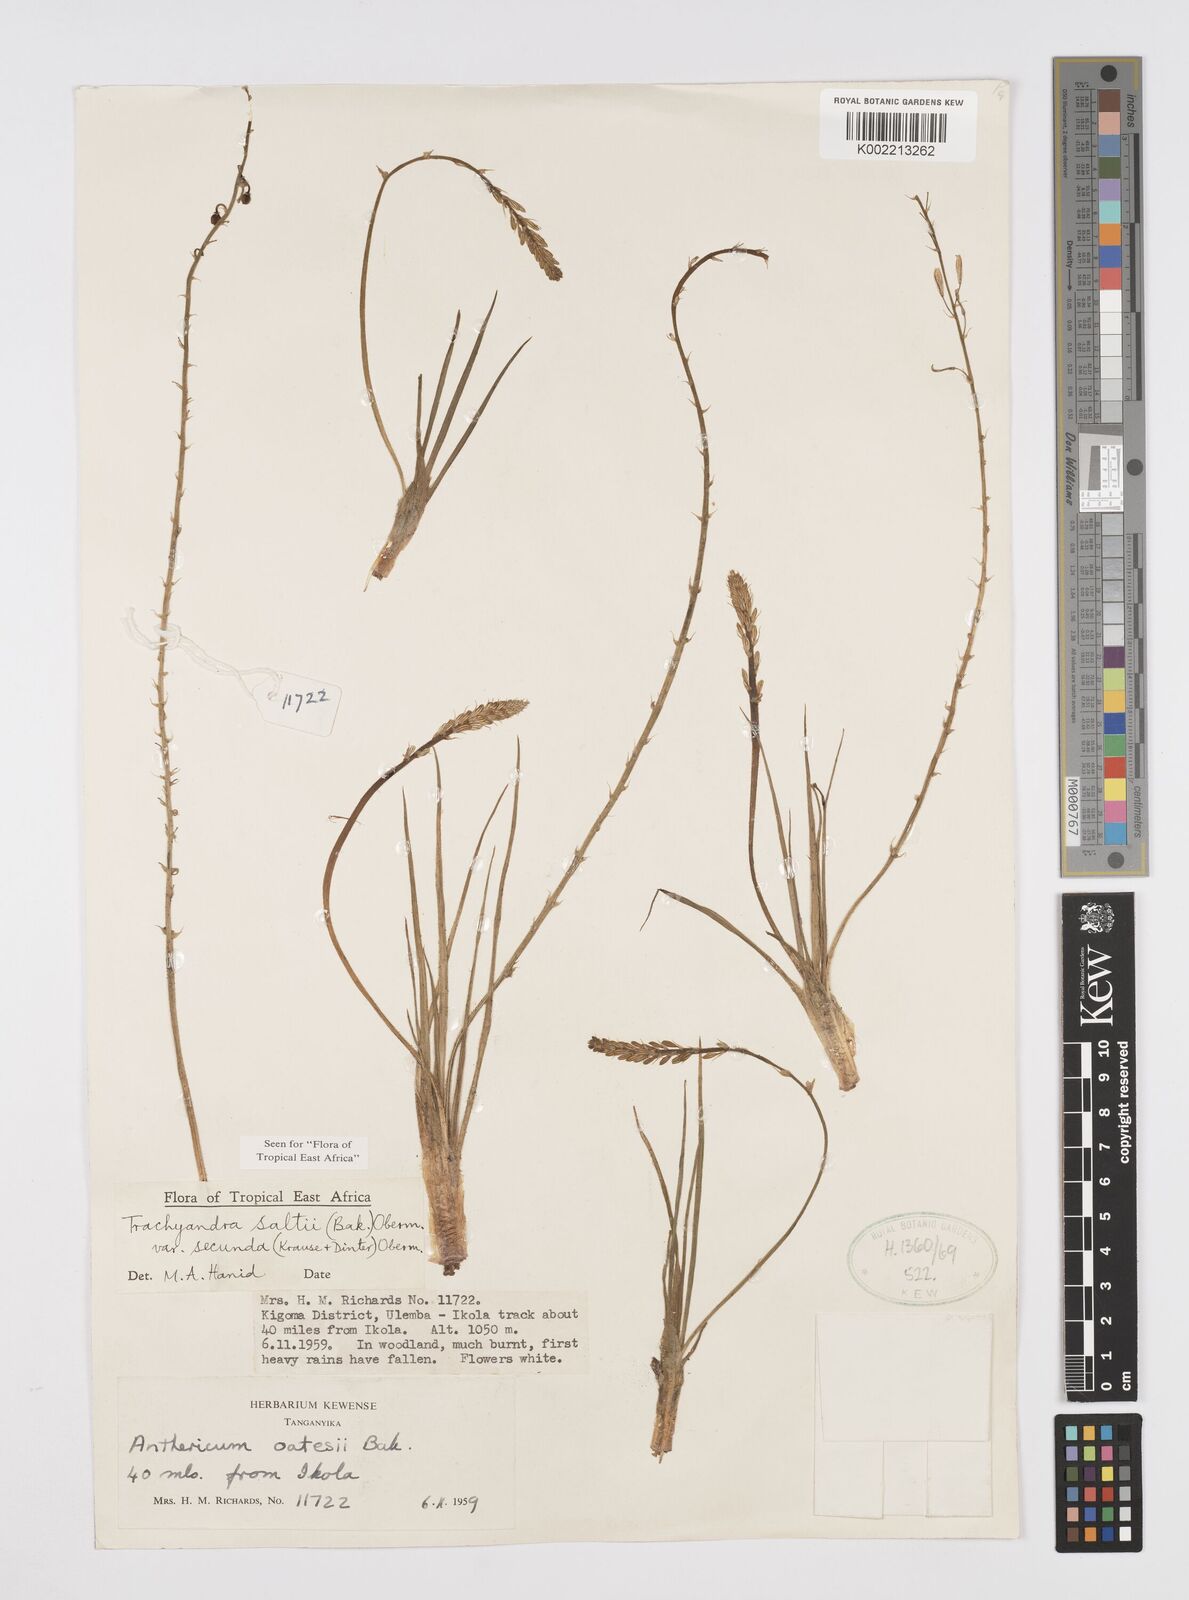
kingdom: Plantae
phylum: Tracheophyta
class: Liliopsida
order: Asparagales
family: Asphodelaceae
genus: Trachyandra
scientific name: Trachyandra saltii
